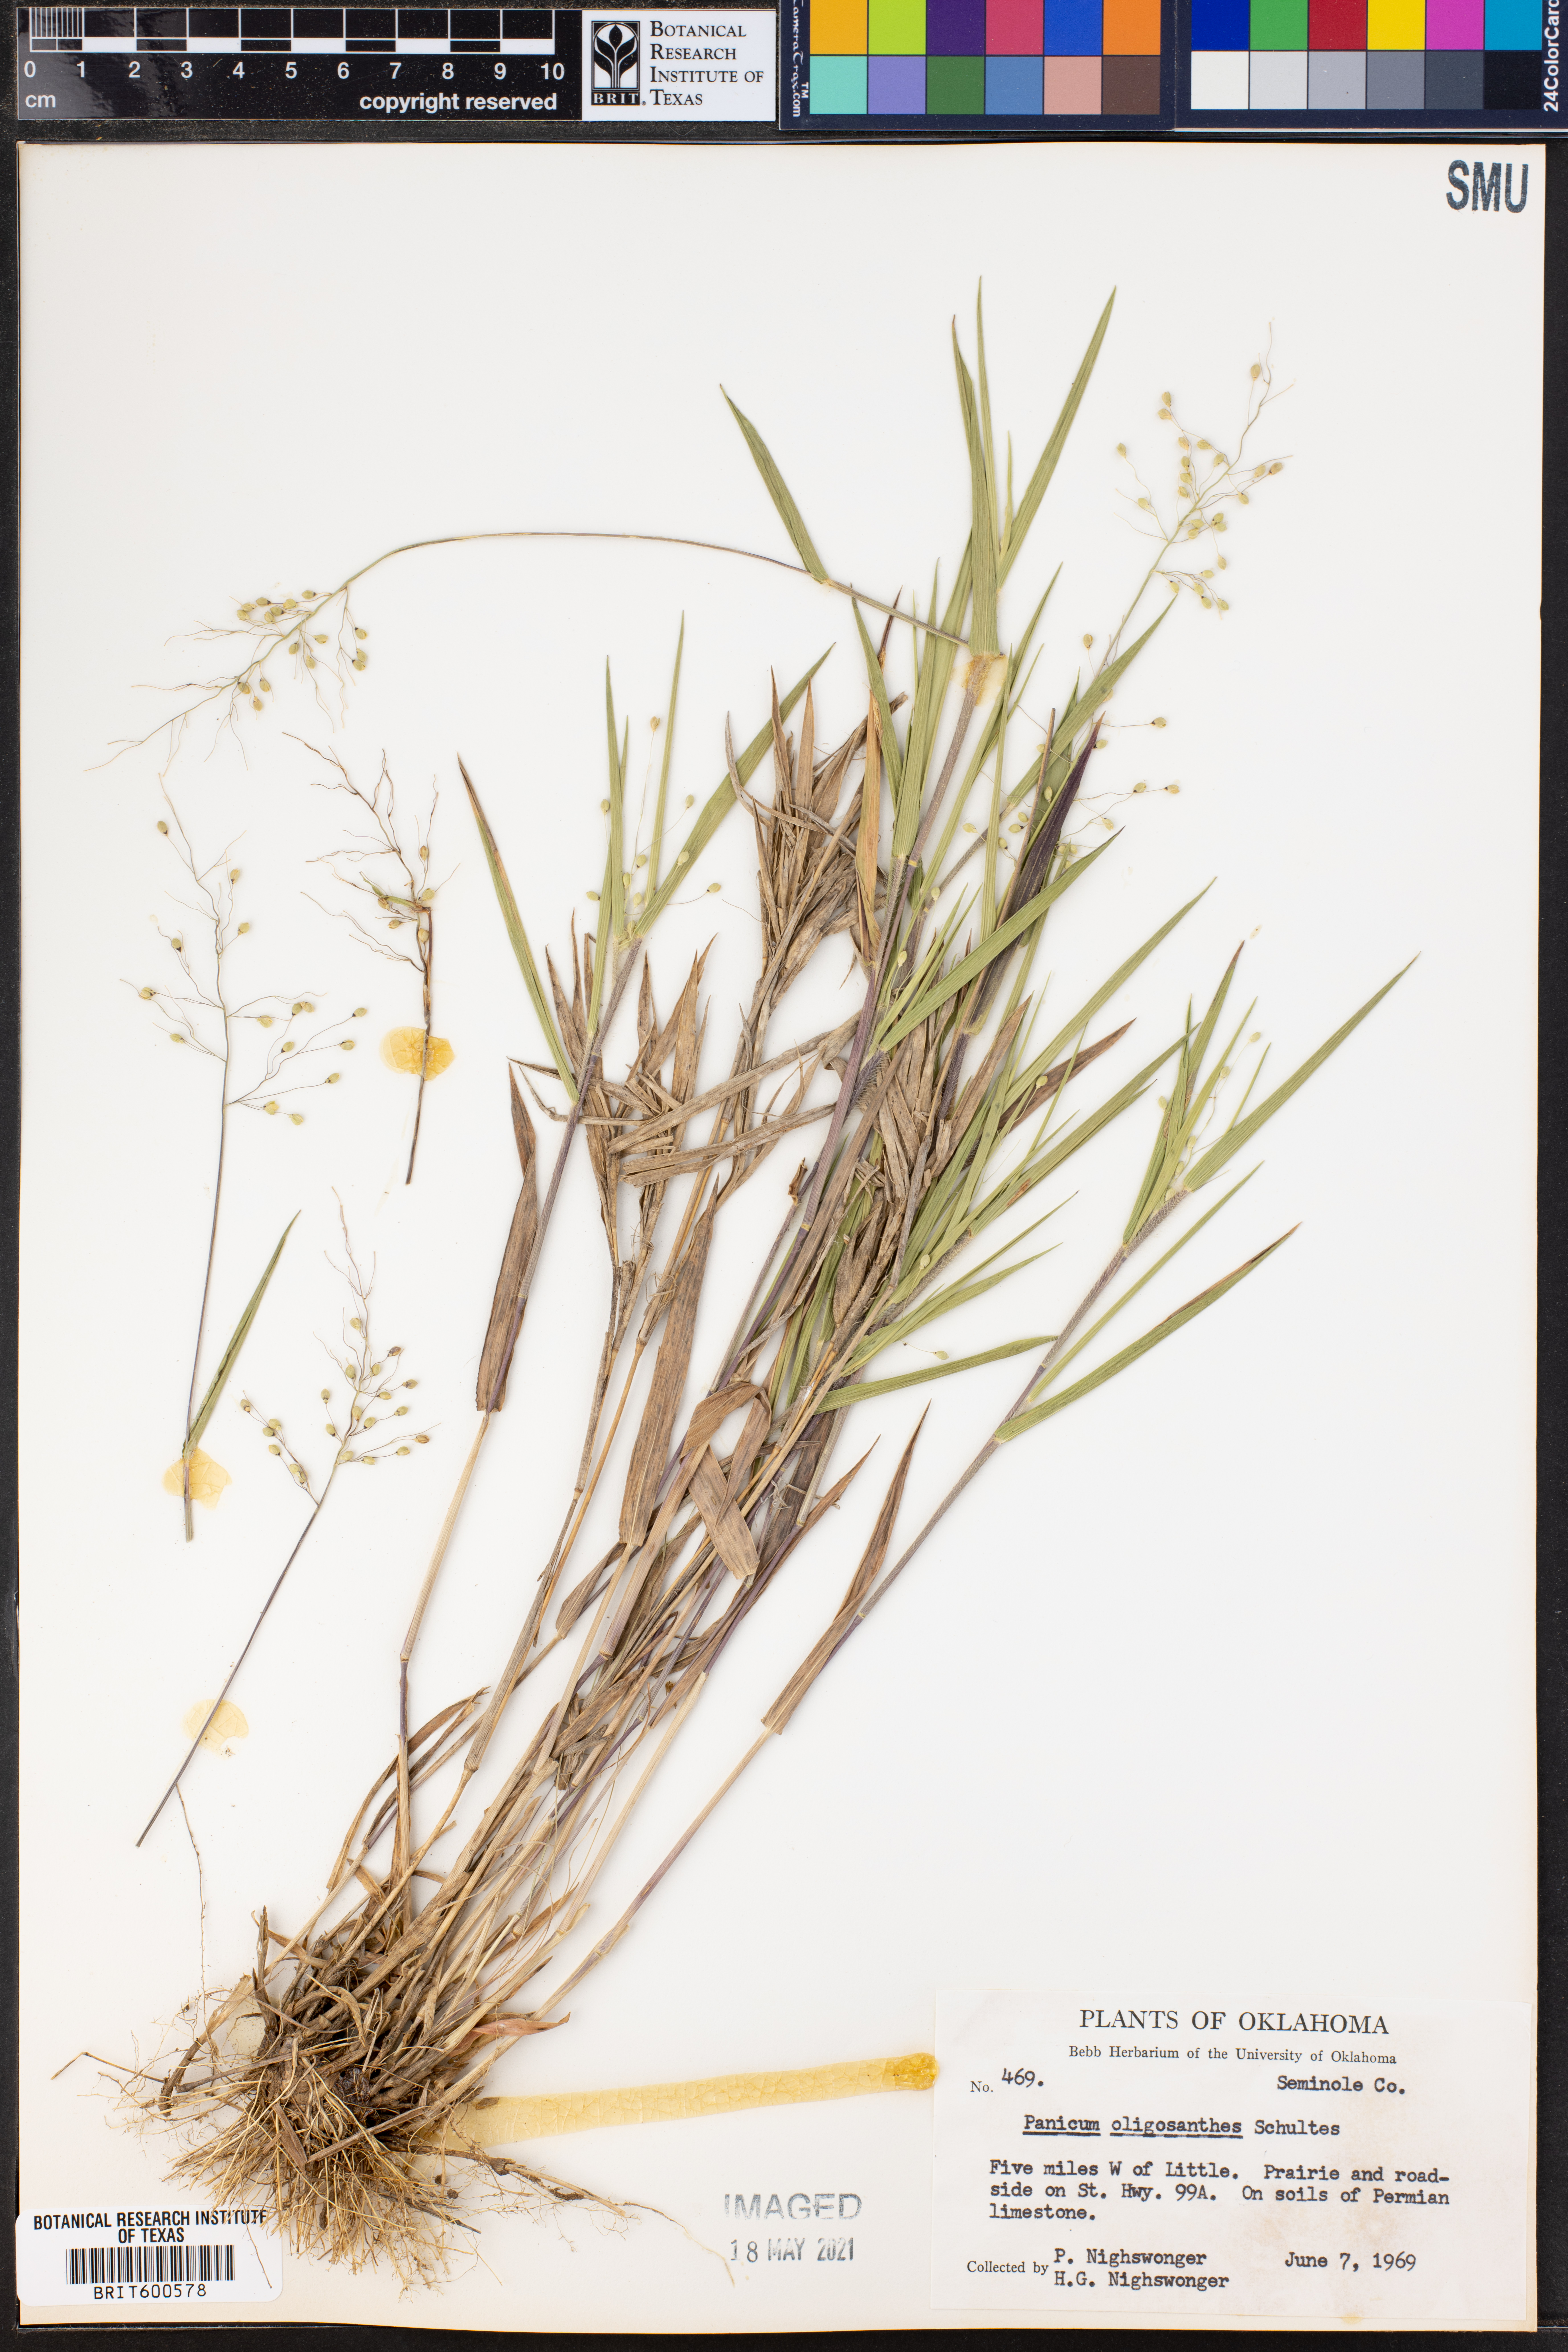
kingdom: Plantae
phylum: Tracheophyta
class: Liliopsida
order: Poales
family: Poaceae
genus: Dichanthelium
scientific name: Dichanthelium oligosanthes
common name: Few-anther obscuregrass
